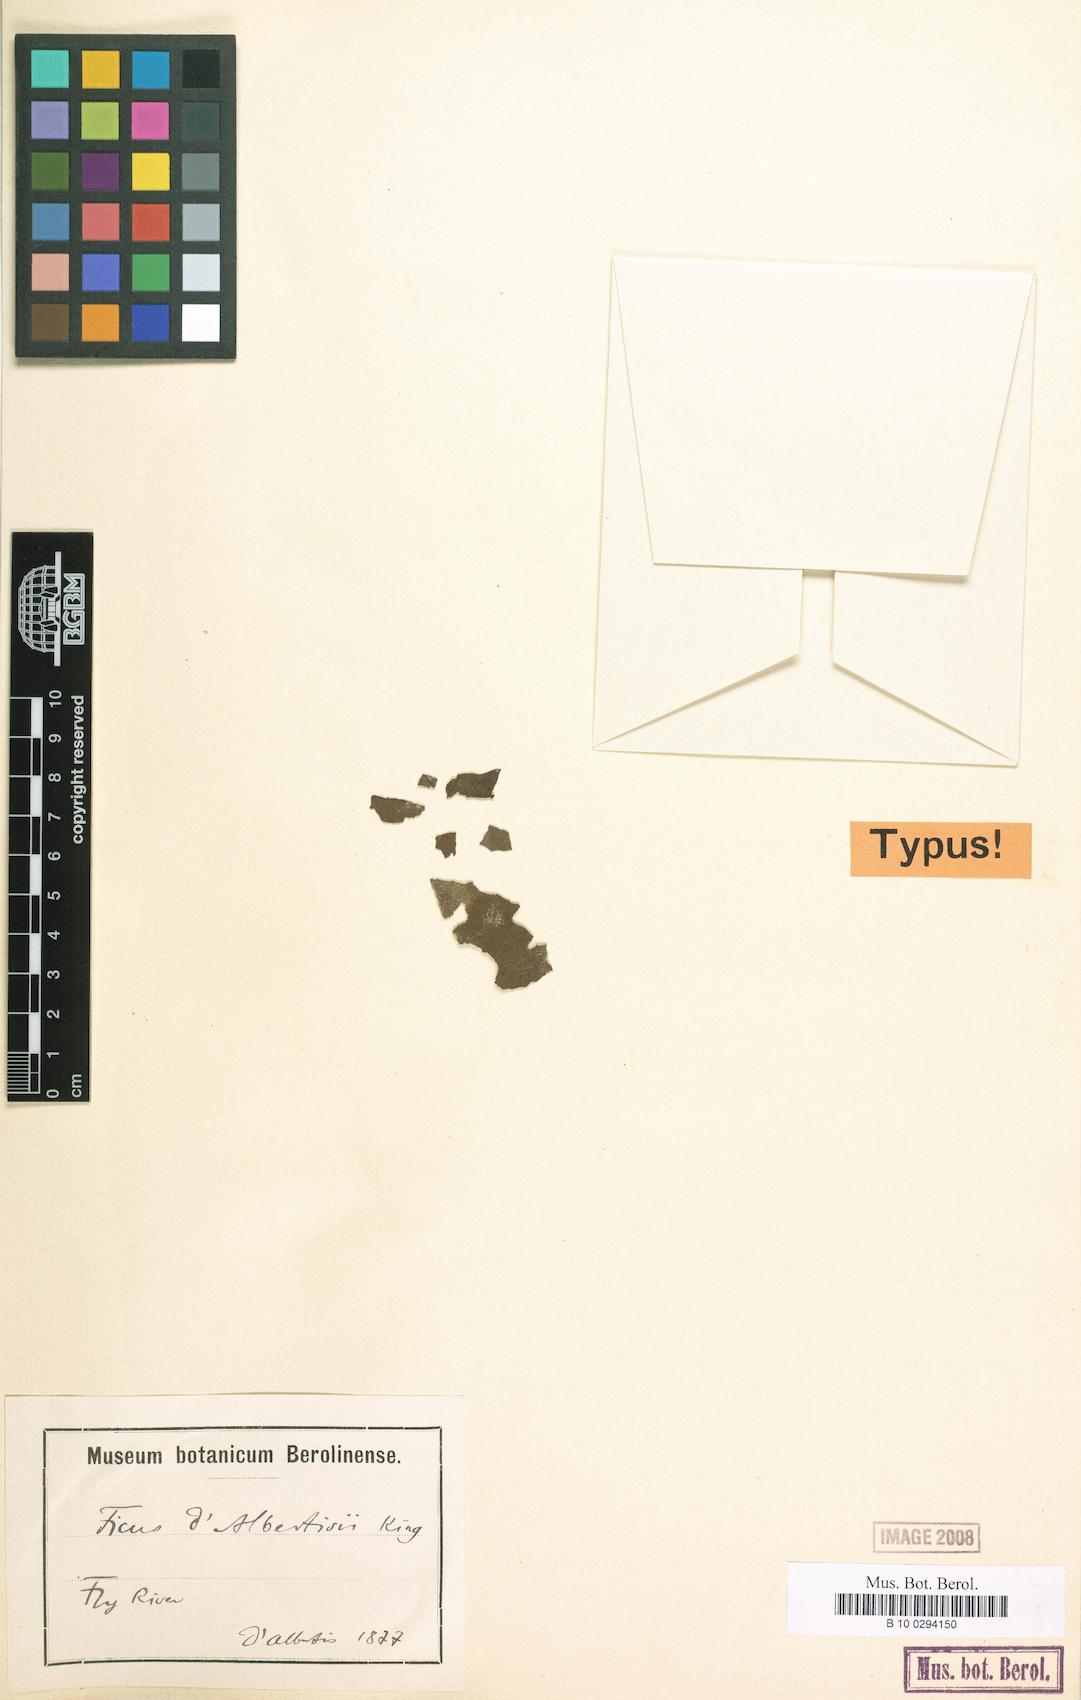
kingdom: Plantae
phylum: Tracheophyta
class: Magnoliopsida
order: Rosales
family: Moraceae
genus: Ficus
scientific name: Ficus dalbertisii
